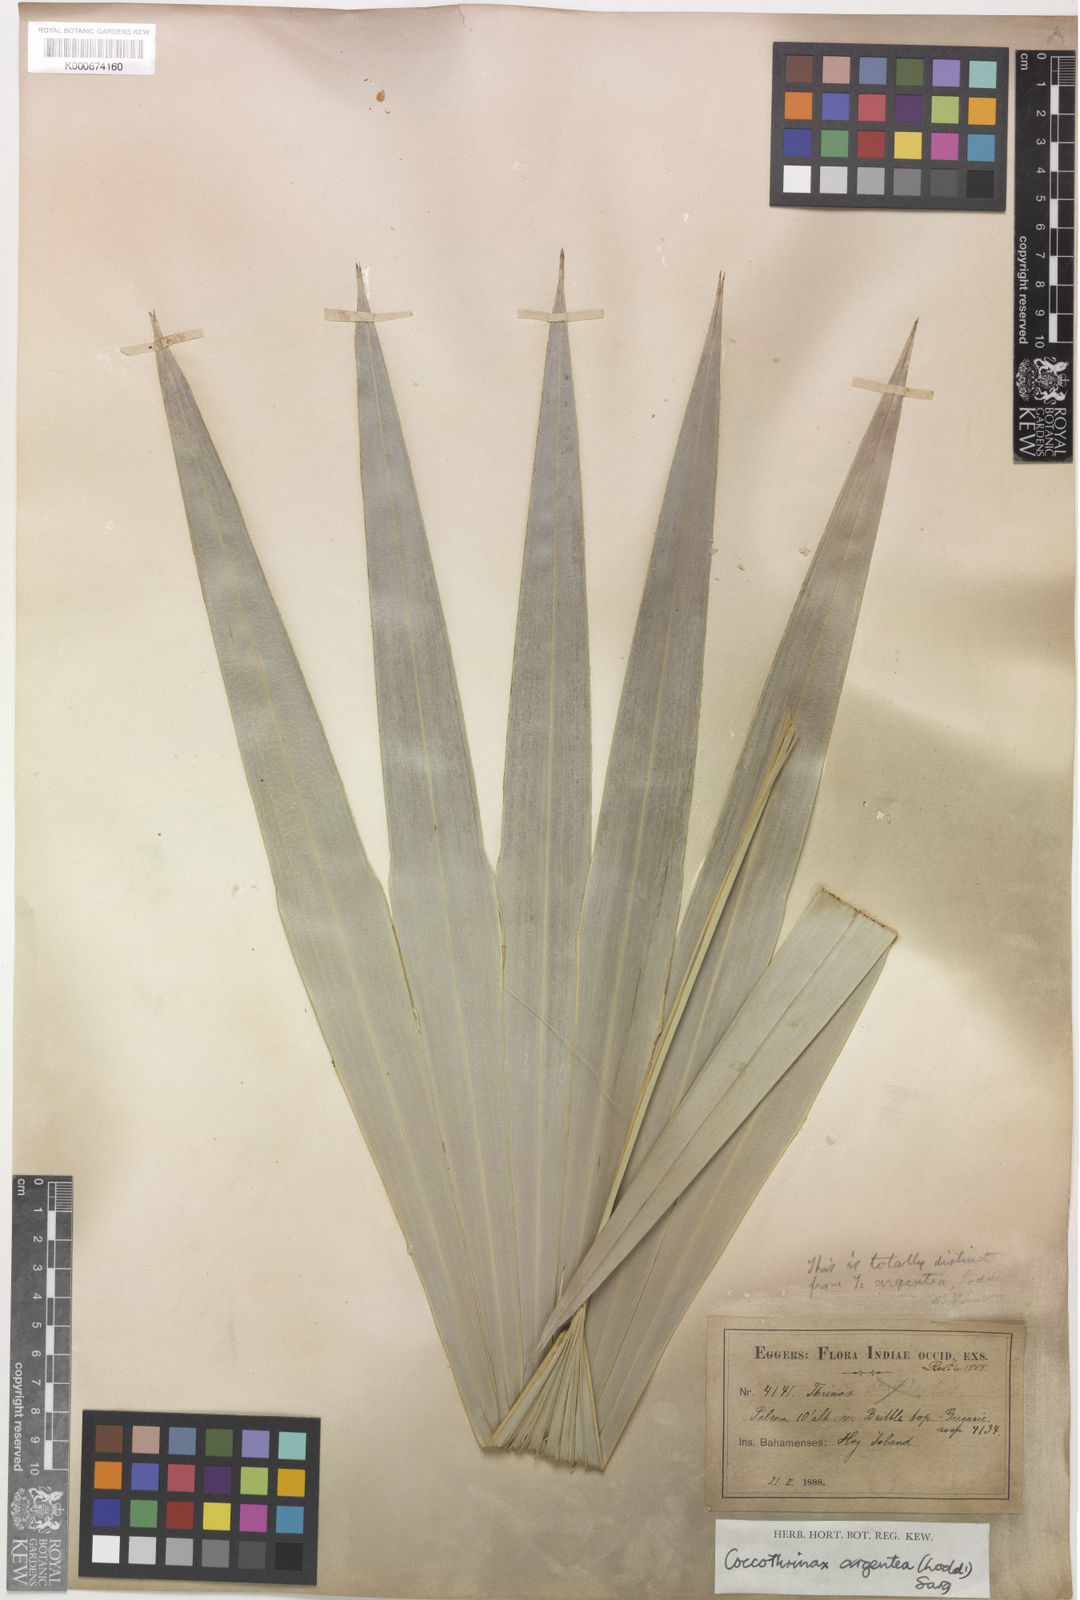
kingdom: Plantae
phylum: Tracheophyta
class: Liliopsida
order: Arecales
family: Arecaceae
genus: Coccothrinax
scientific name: Coccothrinax argentea
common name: Broom palm
